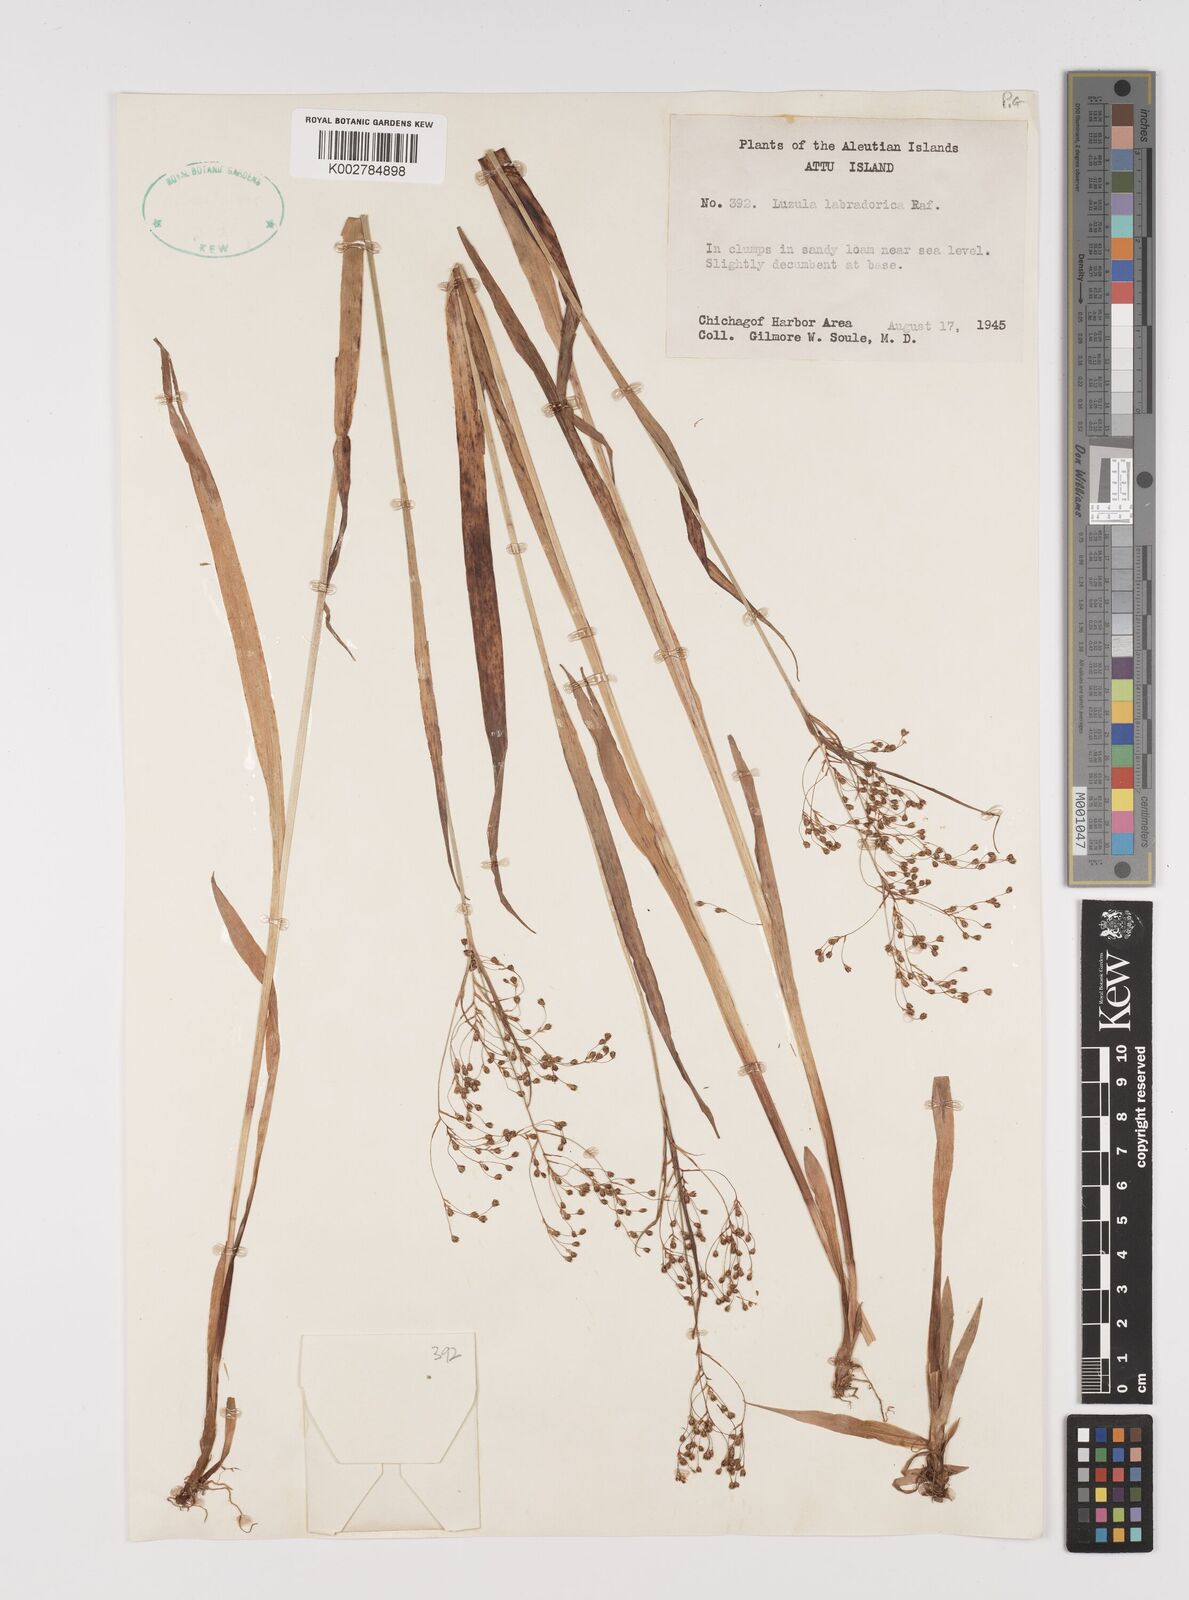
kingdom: Plantae
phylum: Tracheophyta
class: Liliopsida
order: Poales
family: Juncaceae
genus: Luzula
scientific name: Luzula
